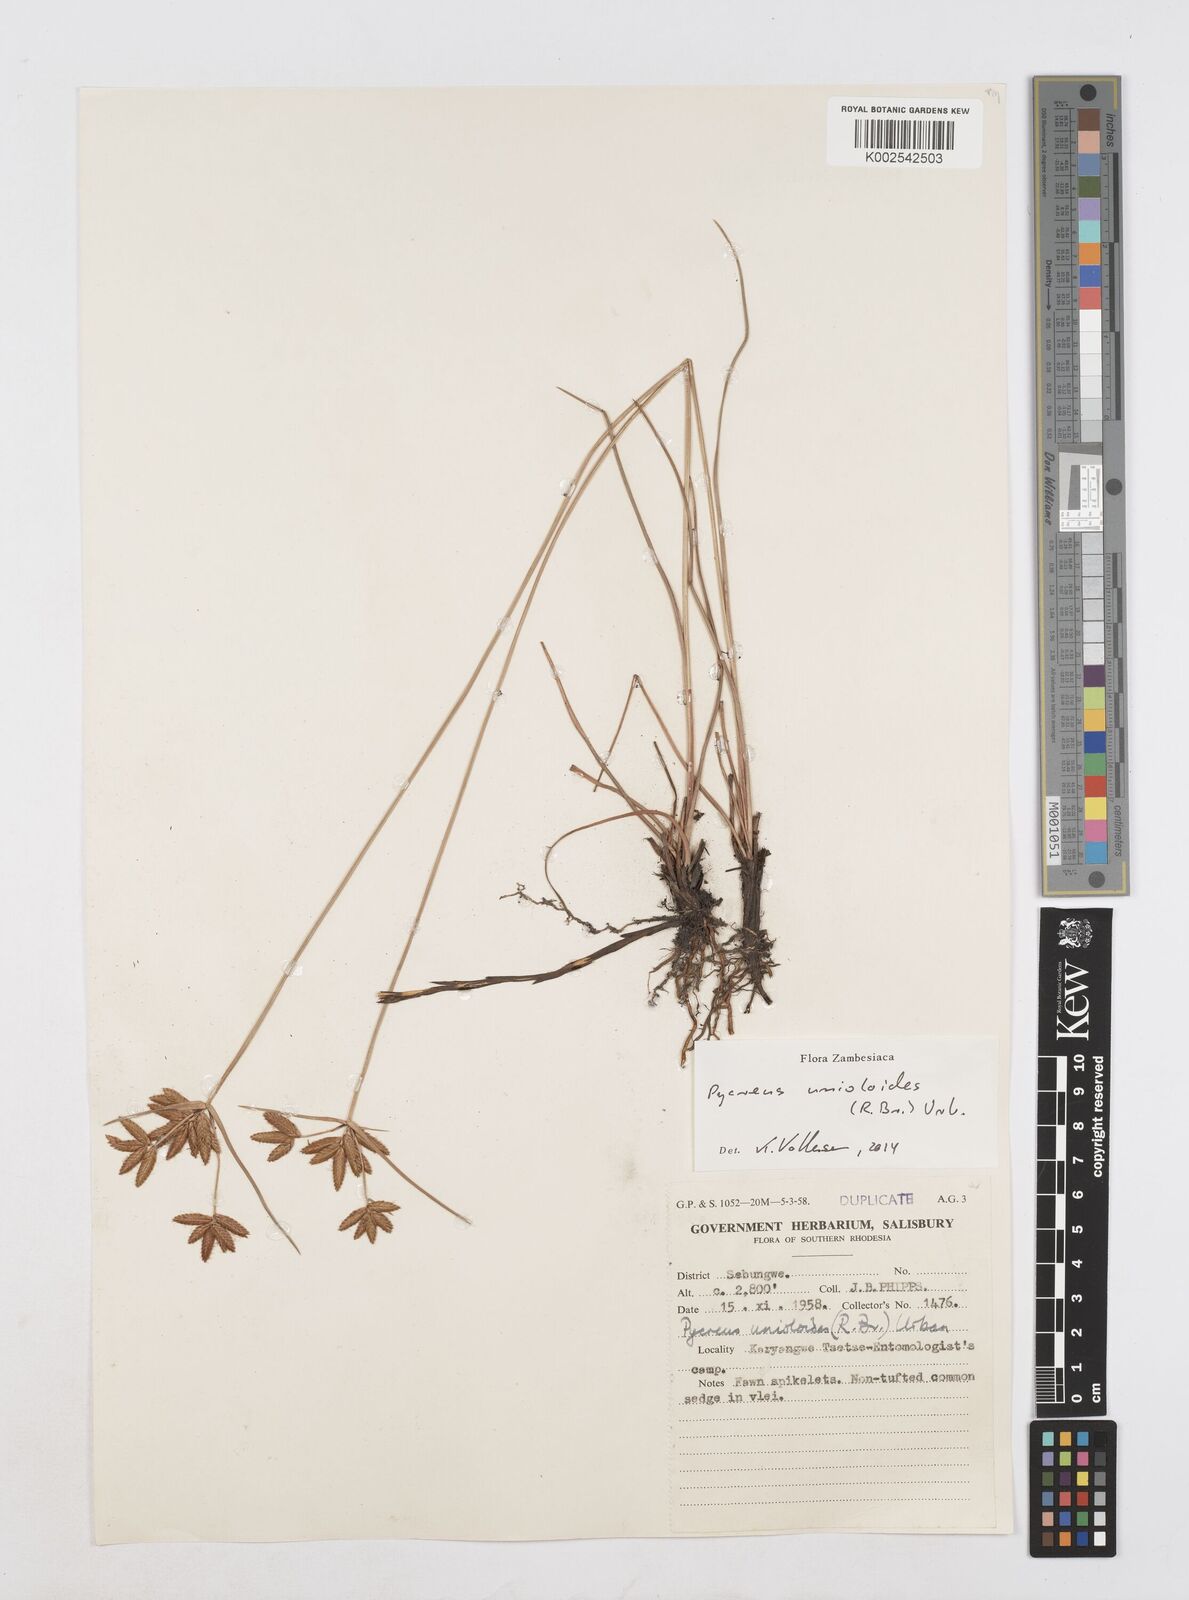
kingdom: Plantae
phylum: Tracheophyta
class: Liliopsida
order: Poales
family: Cyperaceae
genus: Cyperus
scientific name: Cyperus unioloides
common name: Uniola flatsedge
